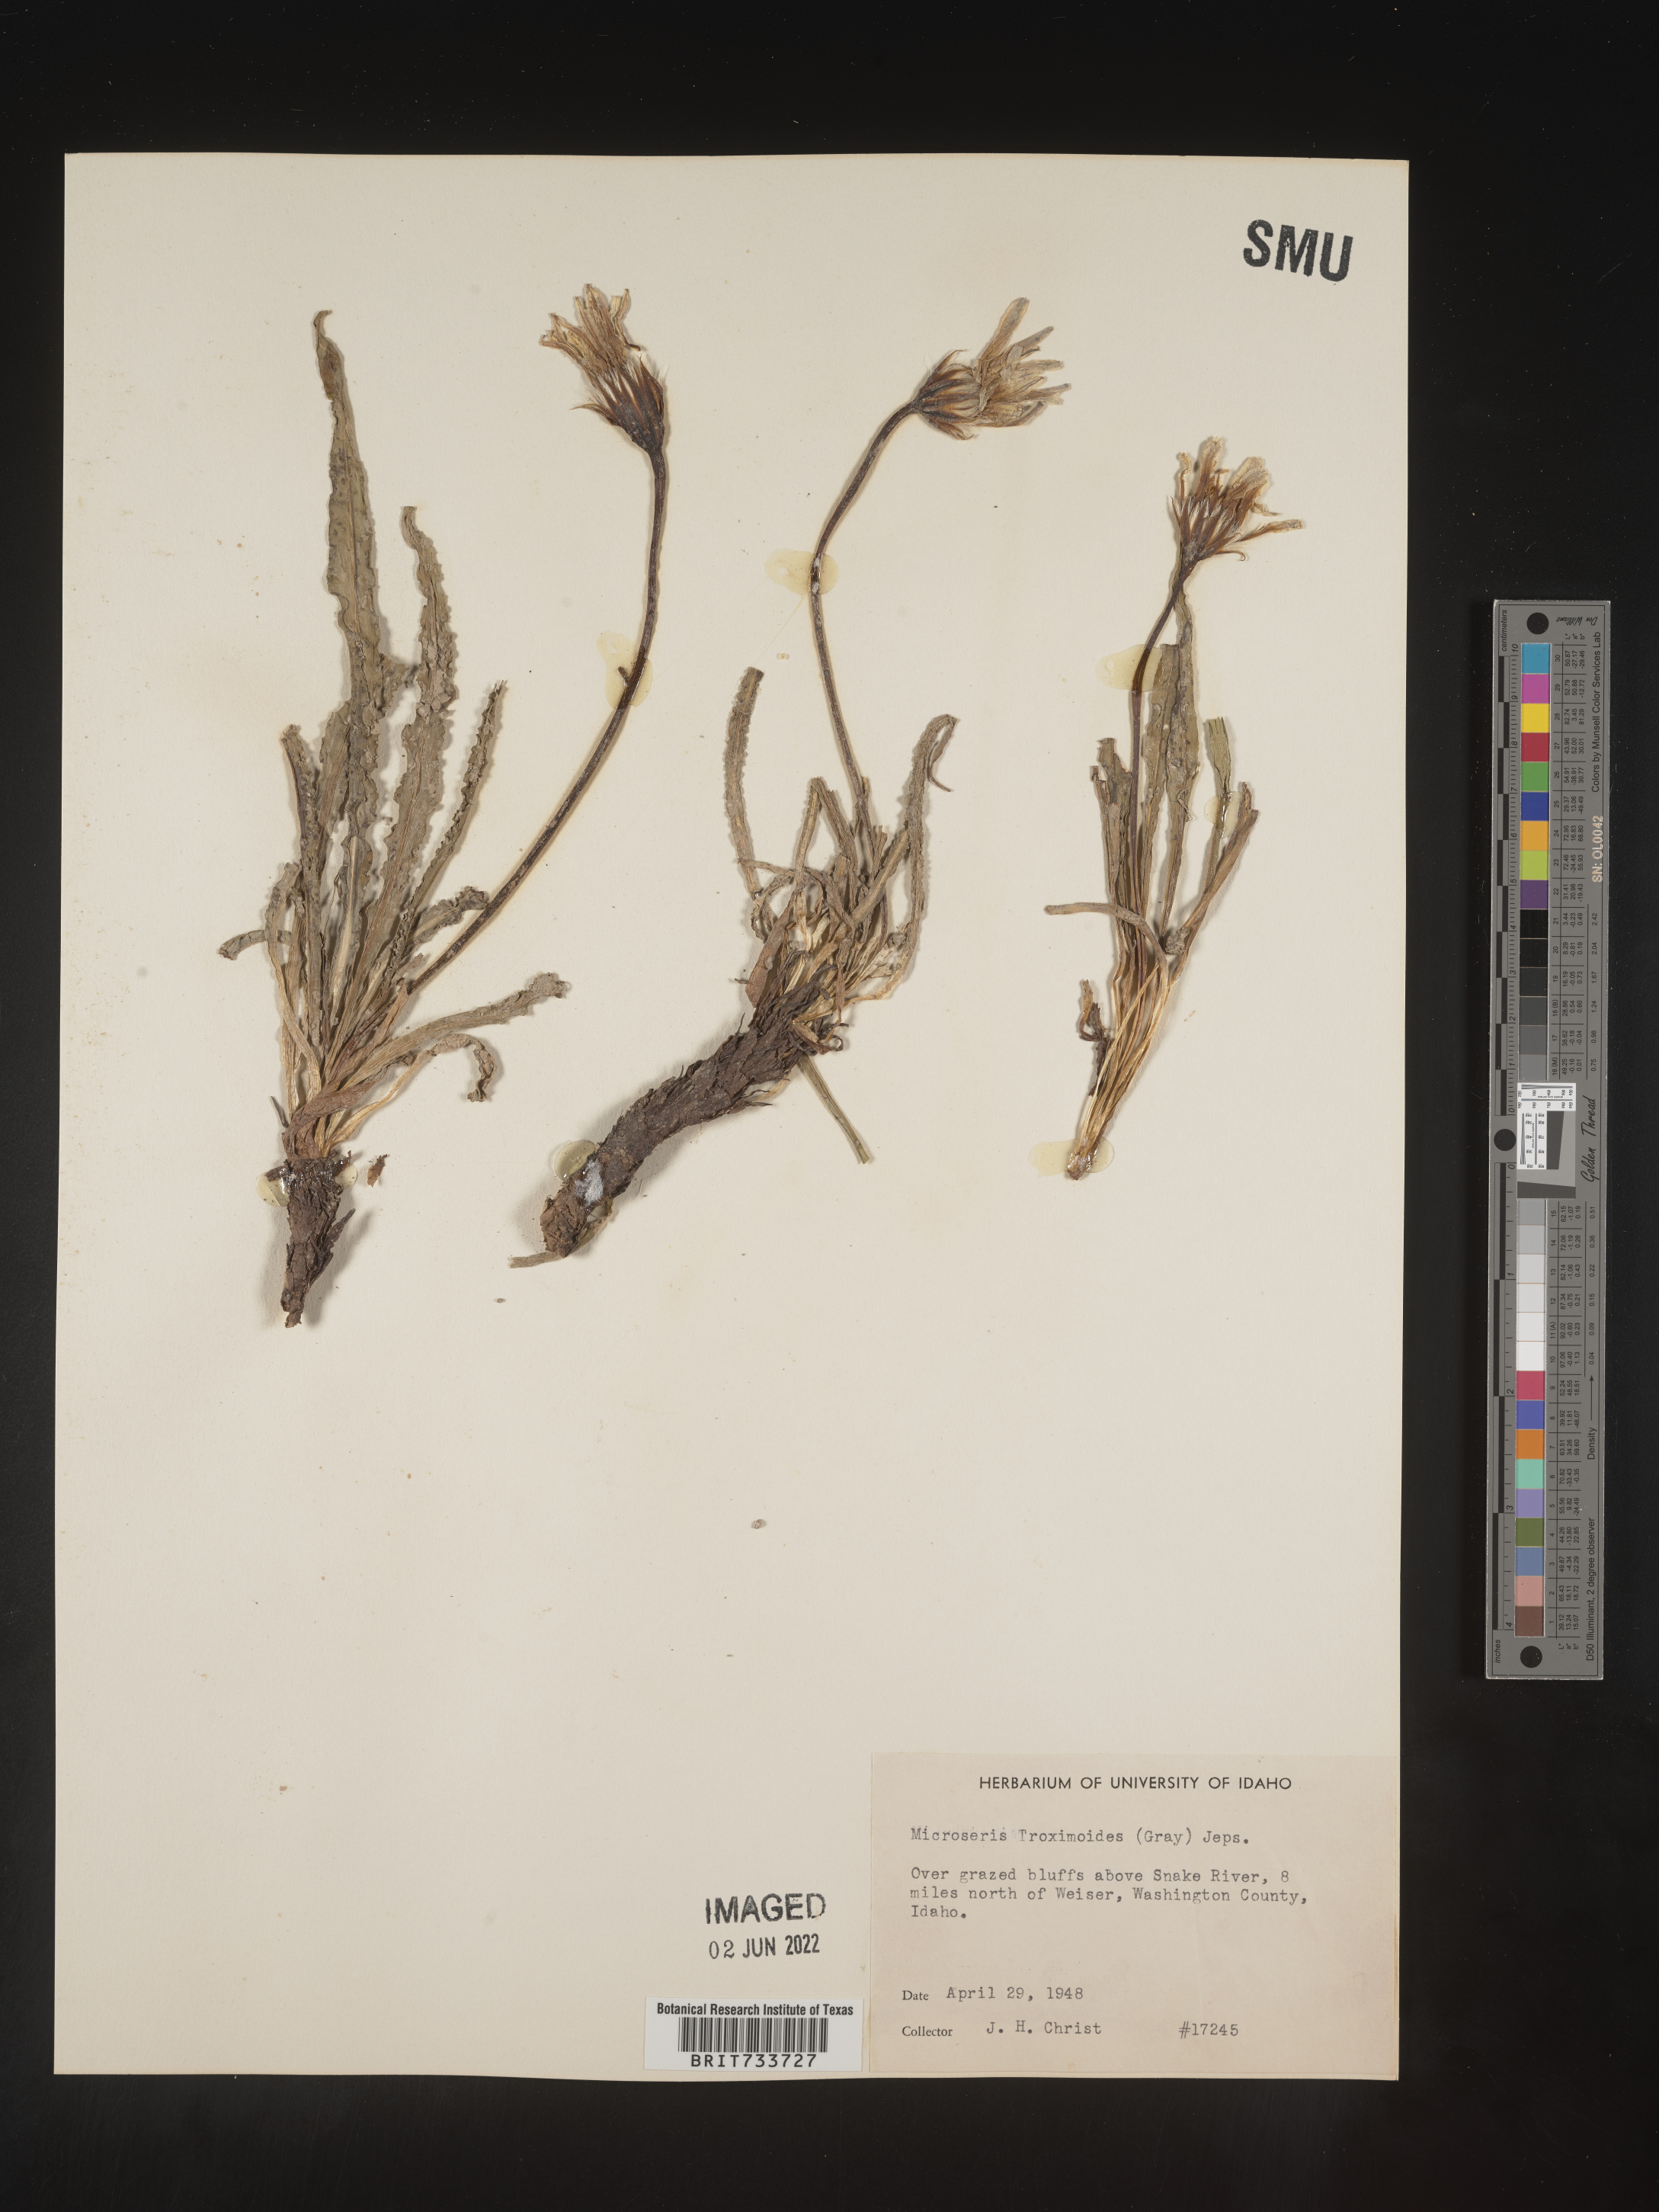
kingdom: Plantae
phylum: Tracheophyta
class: Magnoliopsida
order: Asterales
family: Asteraceae
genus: Microseris
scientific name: Microseris
